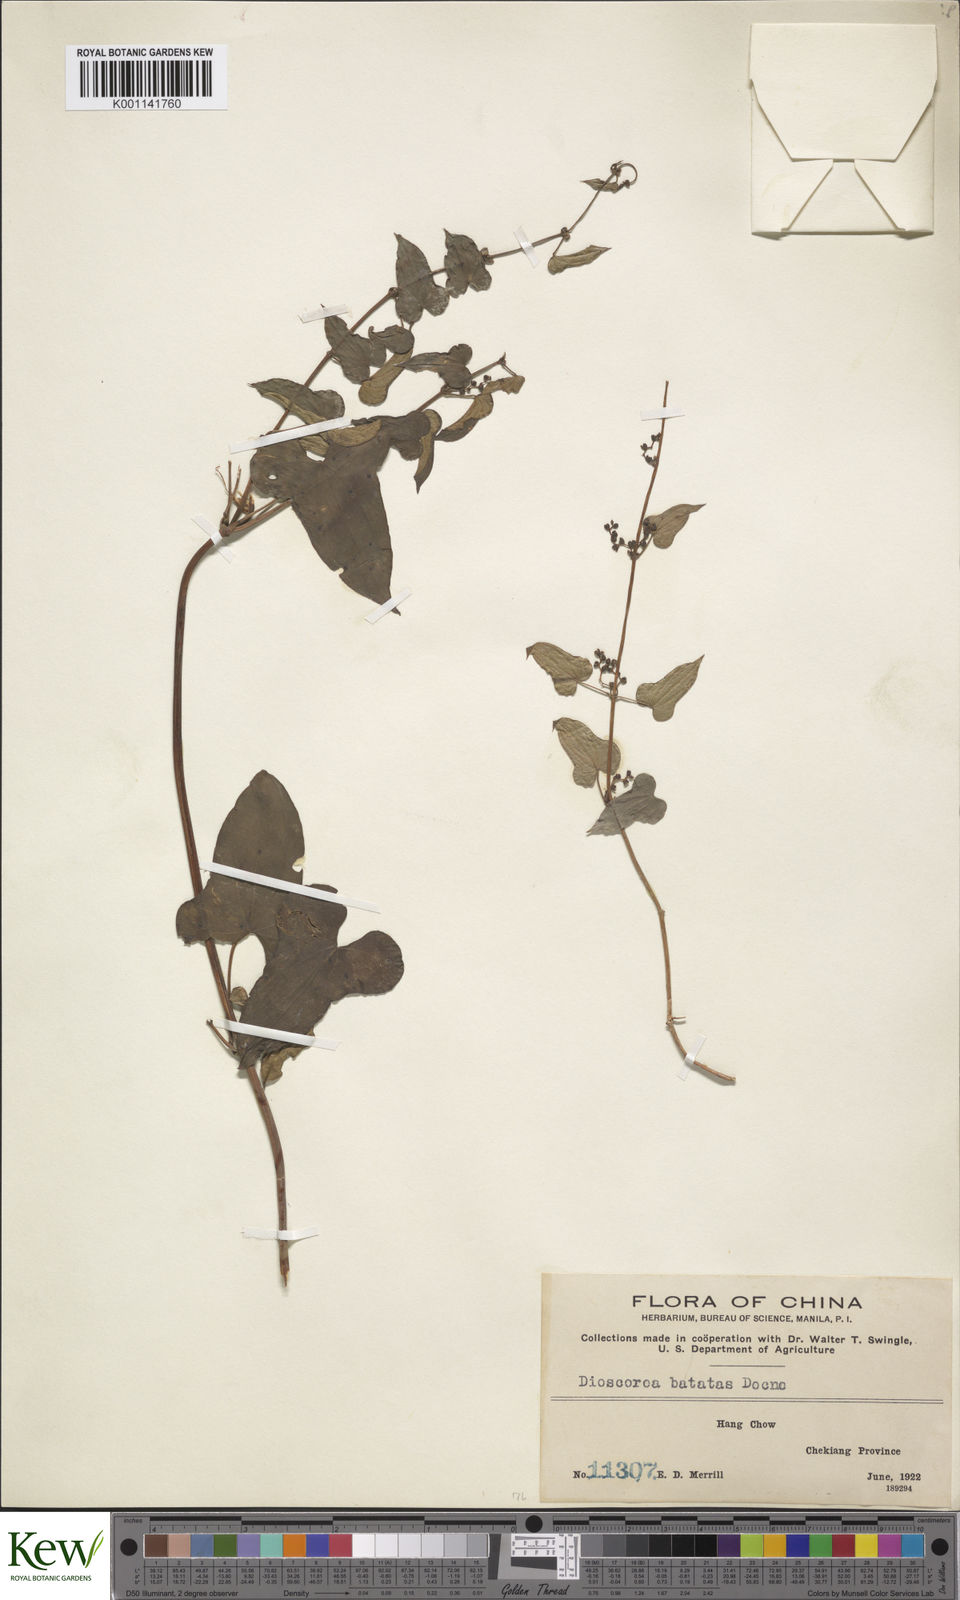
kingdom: Plantae
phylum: Tracheophyta
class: Liliopsida
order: Dioscoreales
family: Dioscoreaceae
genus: Dioscorea
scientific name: Dioscorea oppositifolia
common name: Chinese yam
